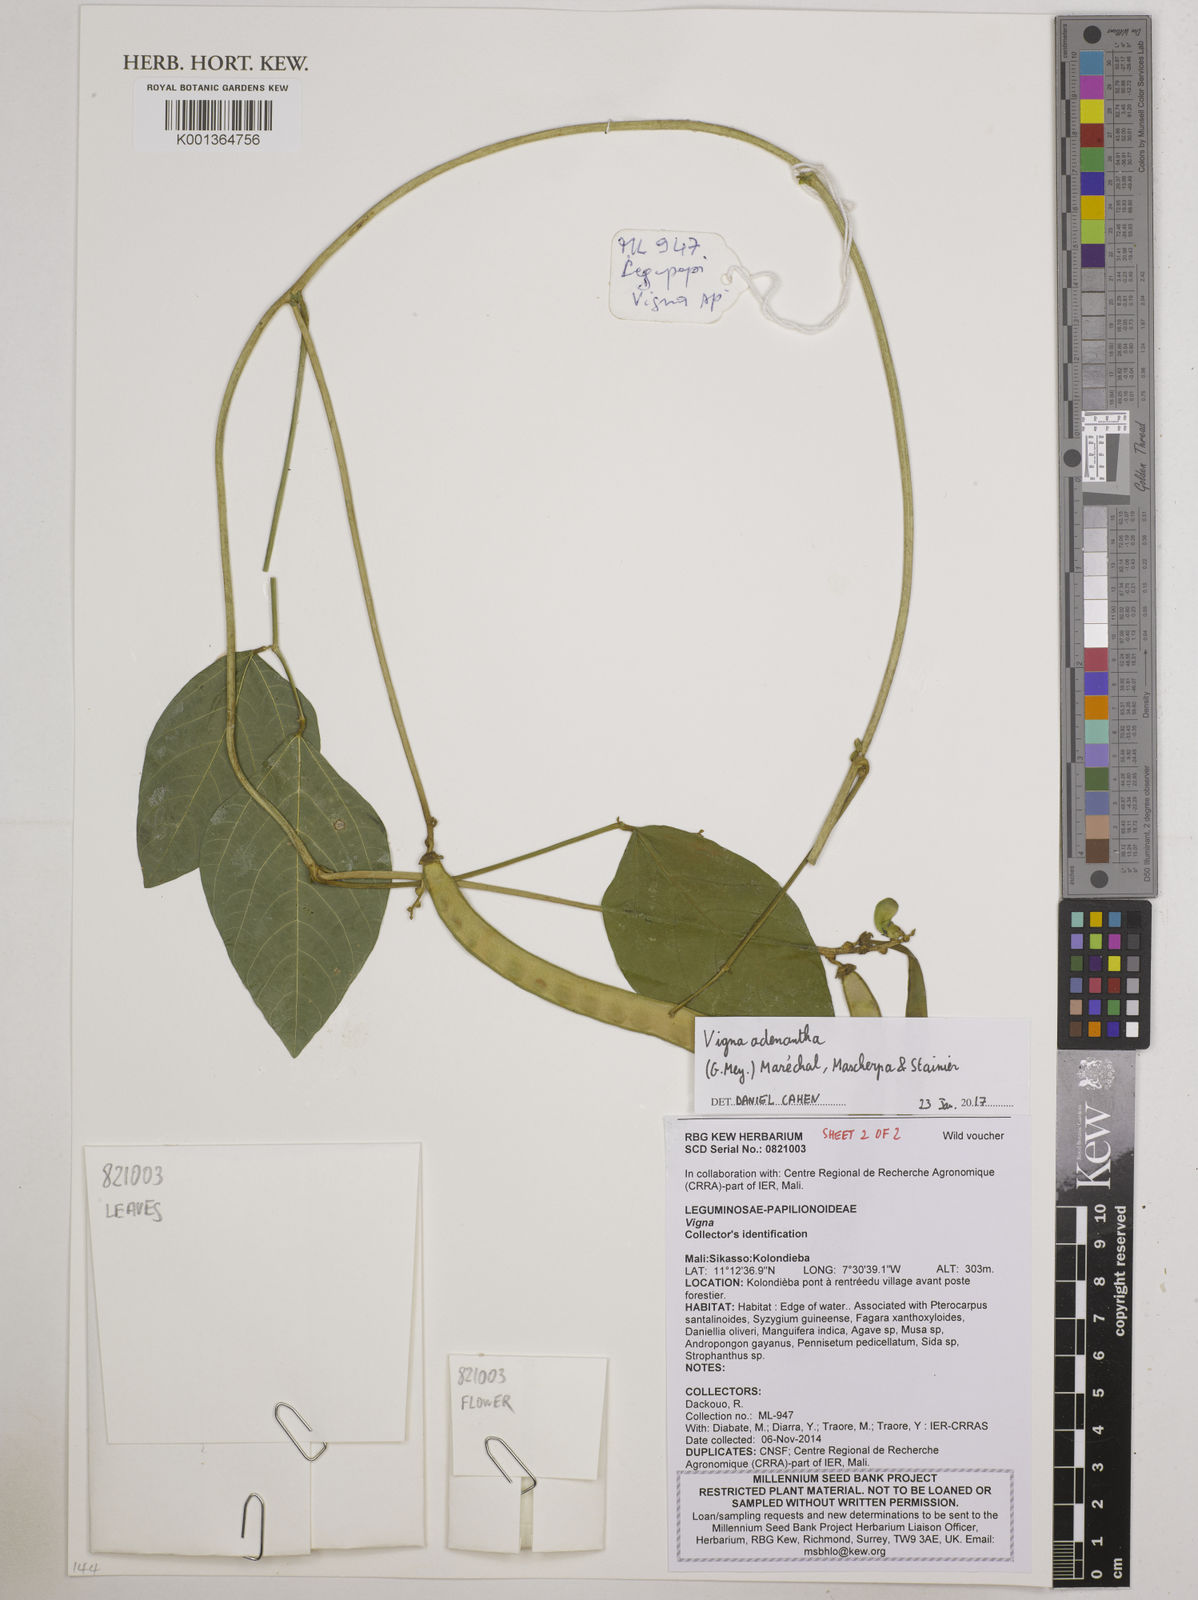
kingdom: Plantae
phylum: Tracheophyta
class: Magnoliopsida
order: Fabales
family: Fabaceae
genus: Leptospron
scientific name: Leptospron adenanthum
